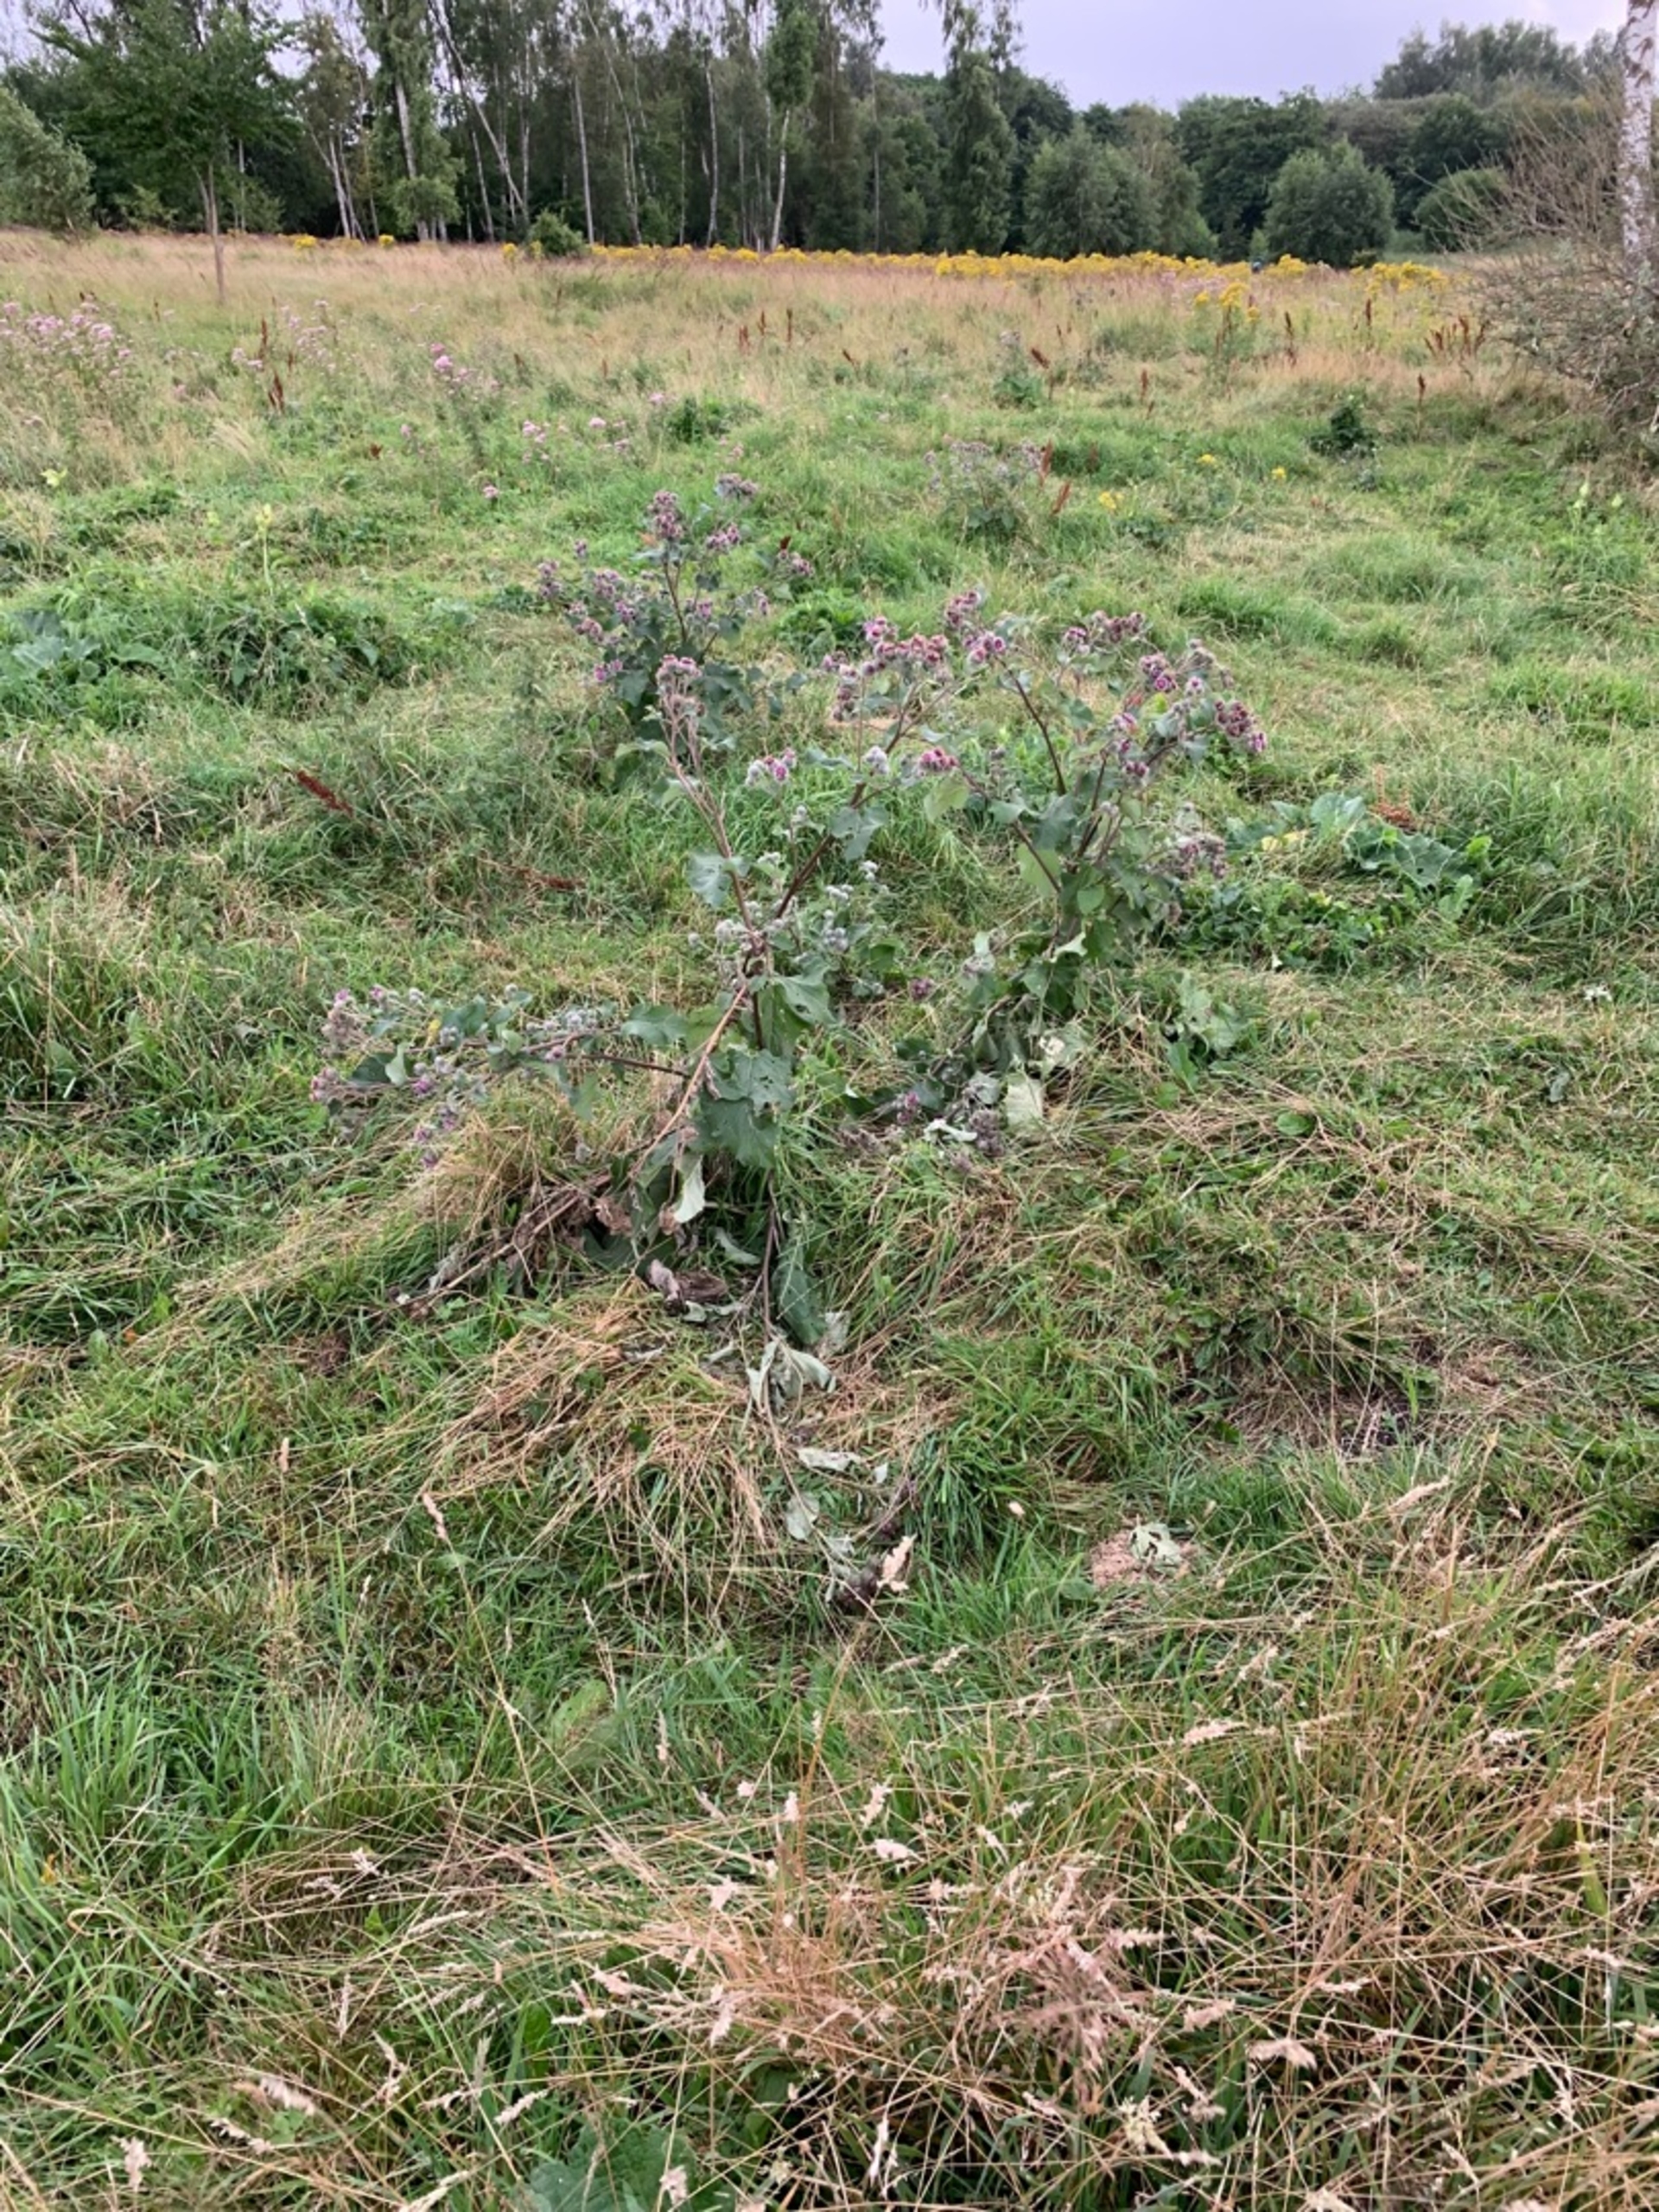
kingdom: Plantae
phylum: Tracheophyta
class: Magnoliopsida
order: Asterales
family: Asteraceae
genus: Arctium
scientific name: Arctium tomentosum
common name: Filtet burre
